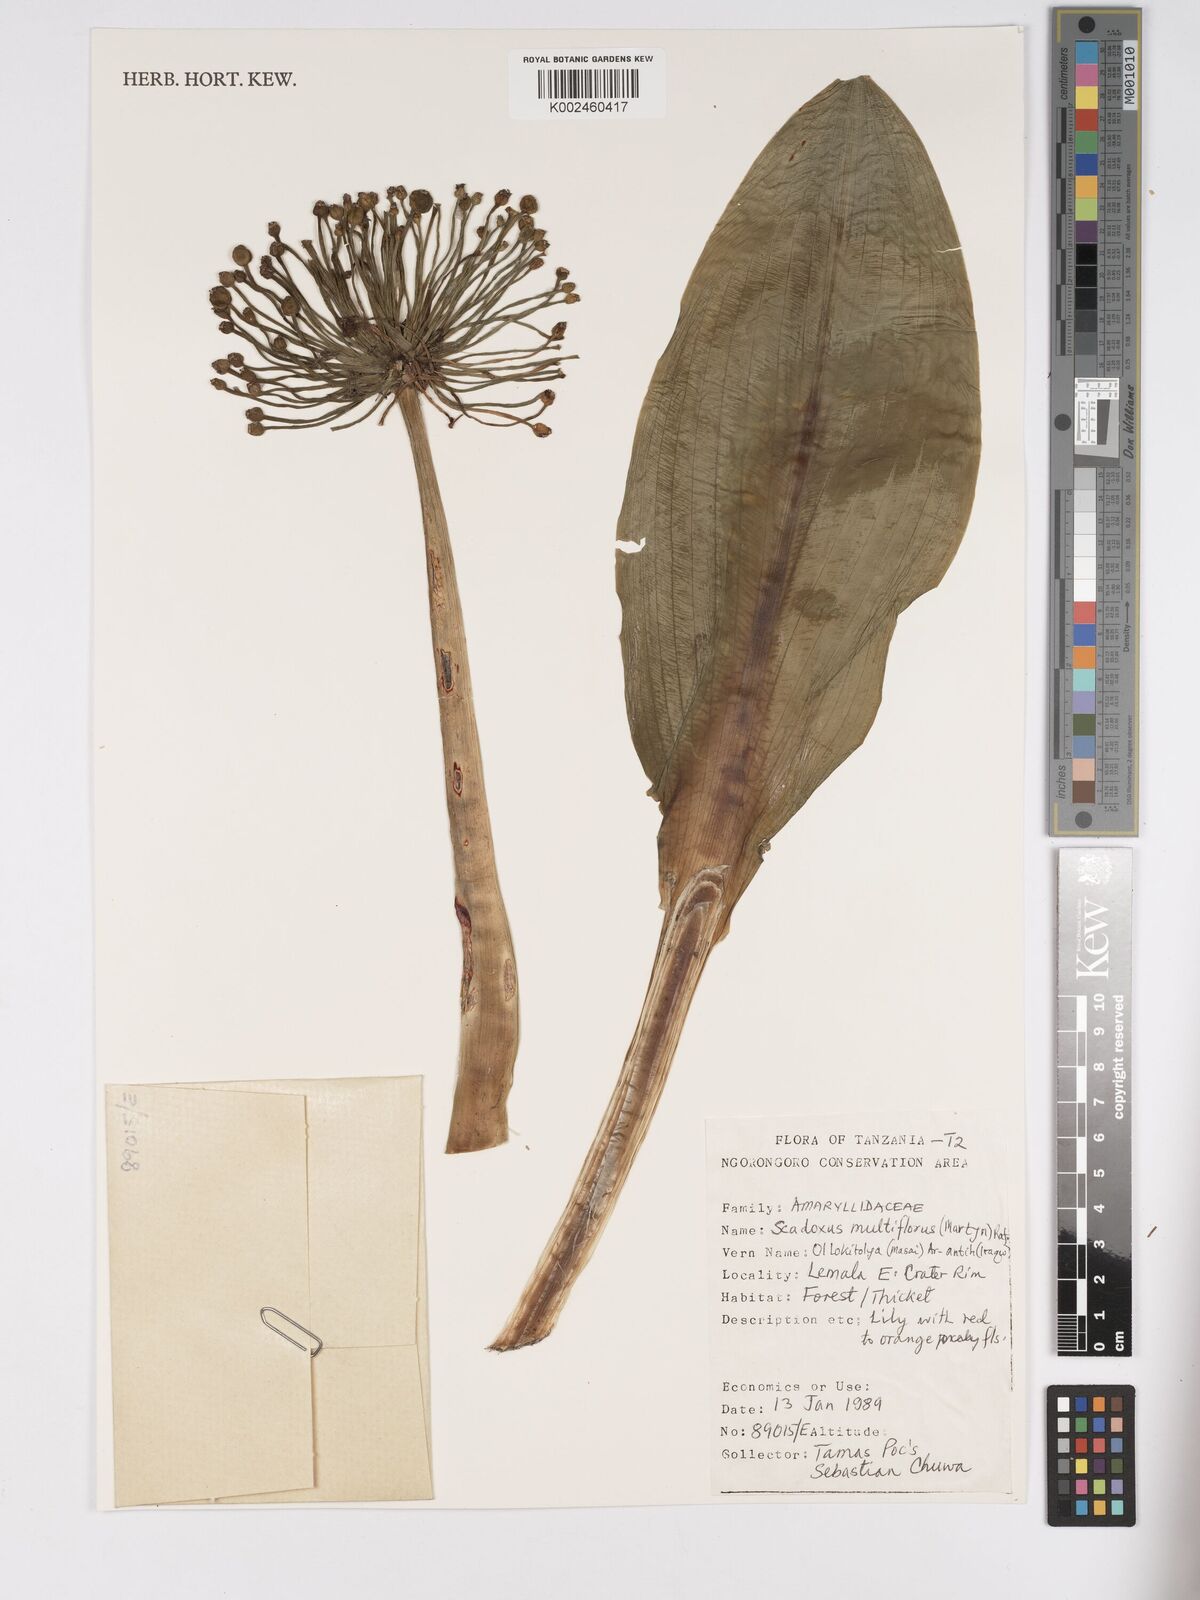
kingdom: Plantae
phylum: Tracheophyta
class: Liliopsida
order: Asparagales
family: Amaryllidaceae
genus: Scadoxus
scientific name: Scadoxus multiflorus
